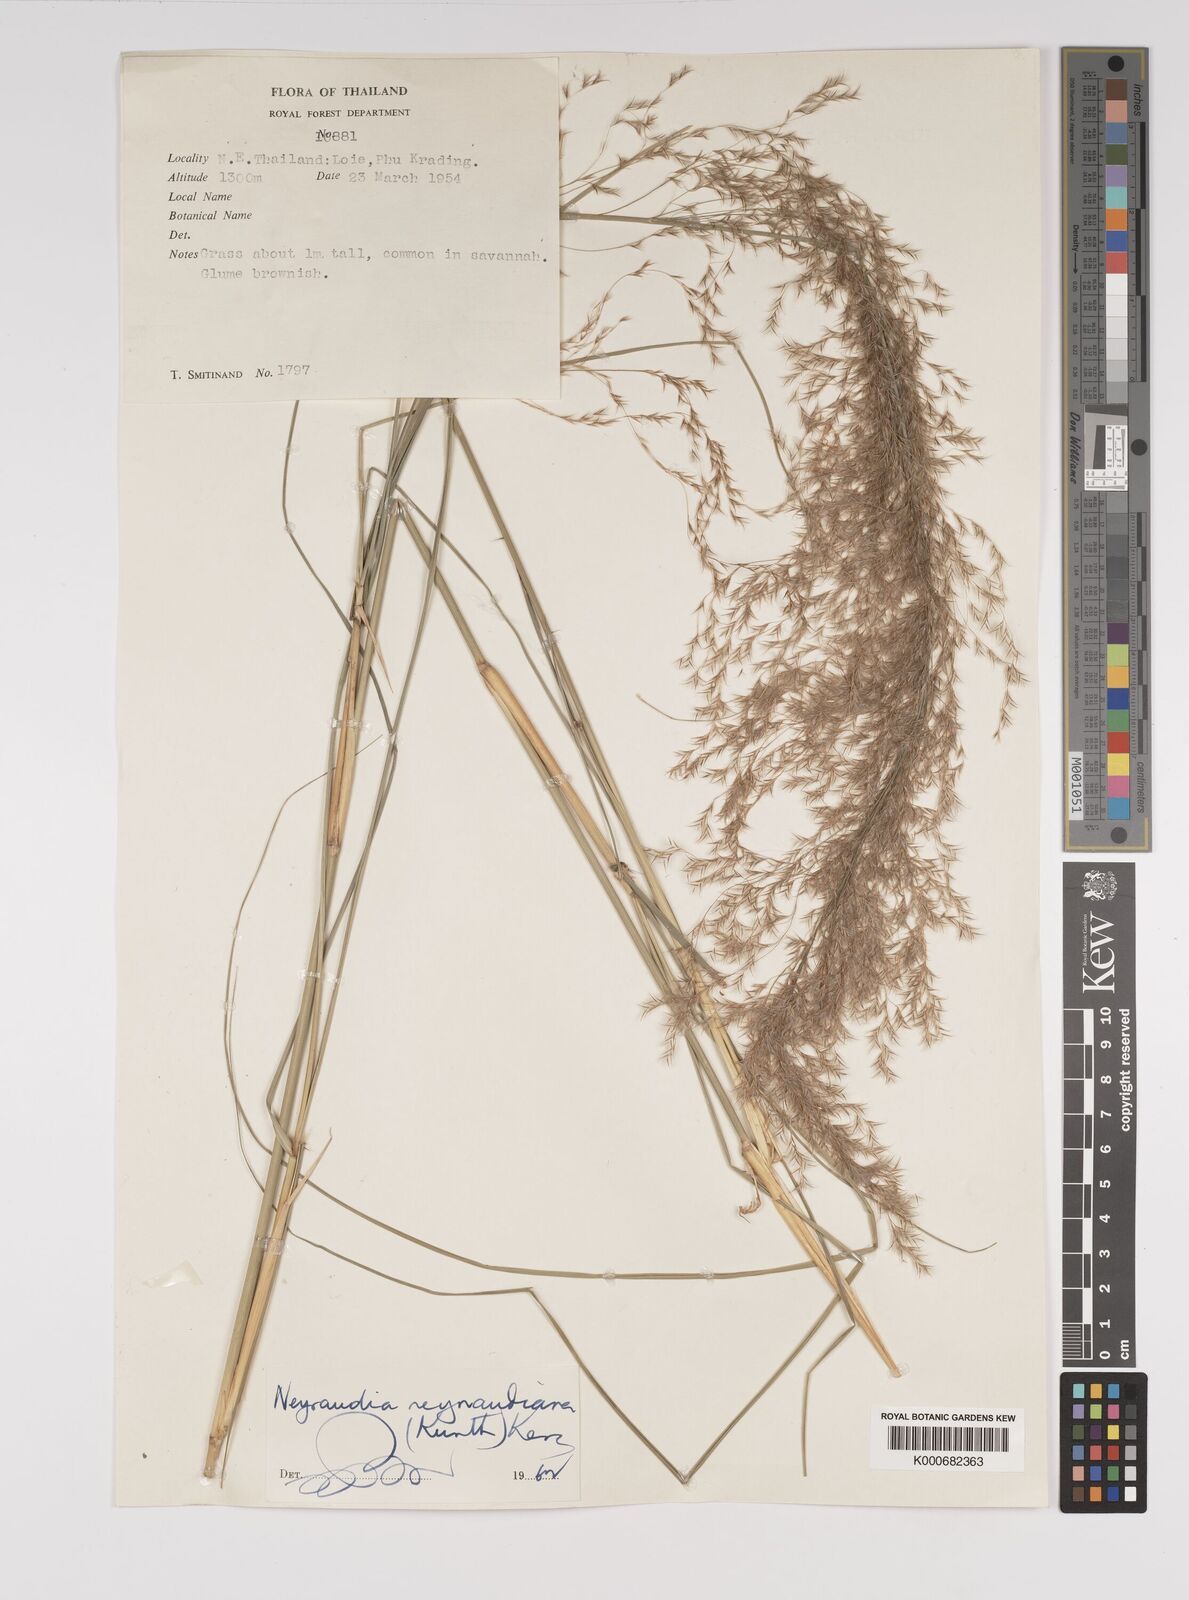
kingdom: Plantae
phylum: Tracheophyta
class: Liliopsida
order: Poales
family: Poaceae
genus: Neyraudia
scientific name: Neyraudia reynaudiana
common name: Silkreed
